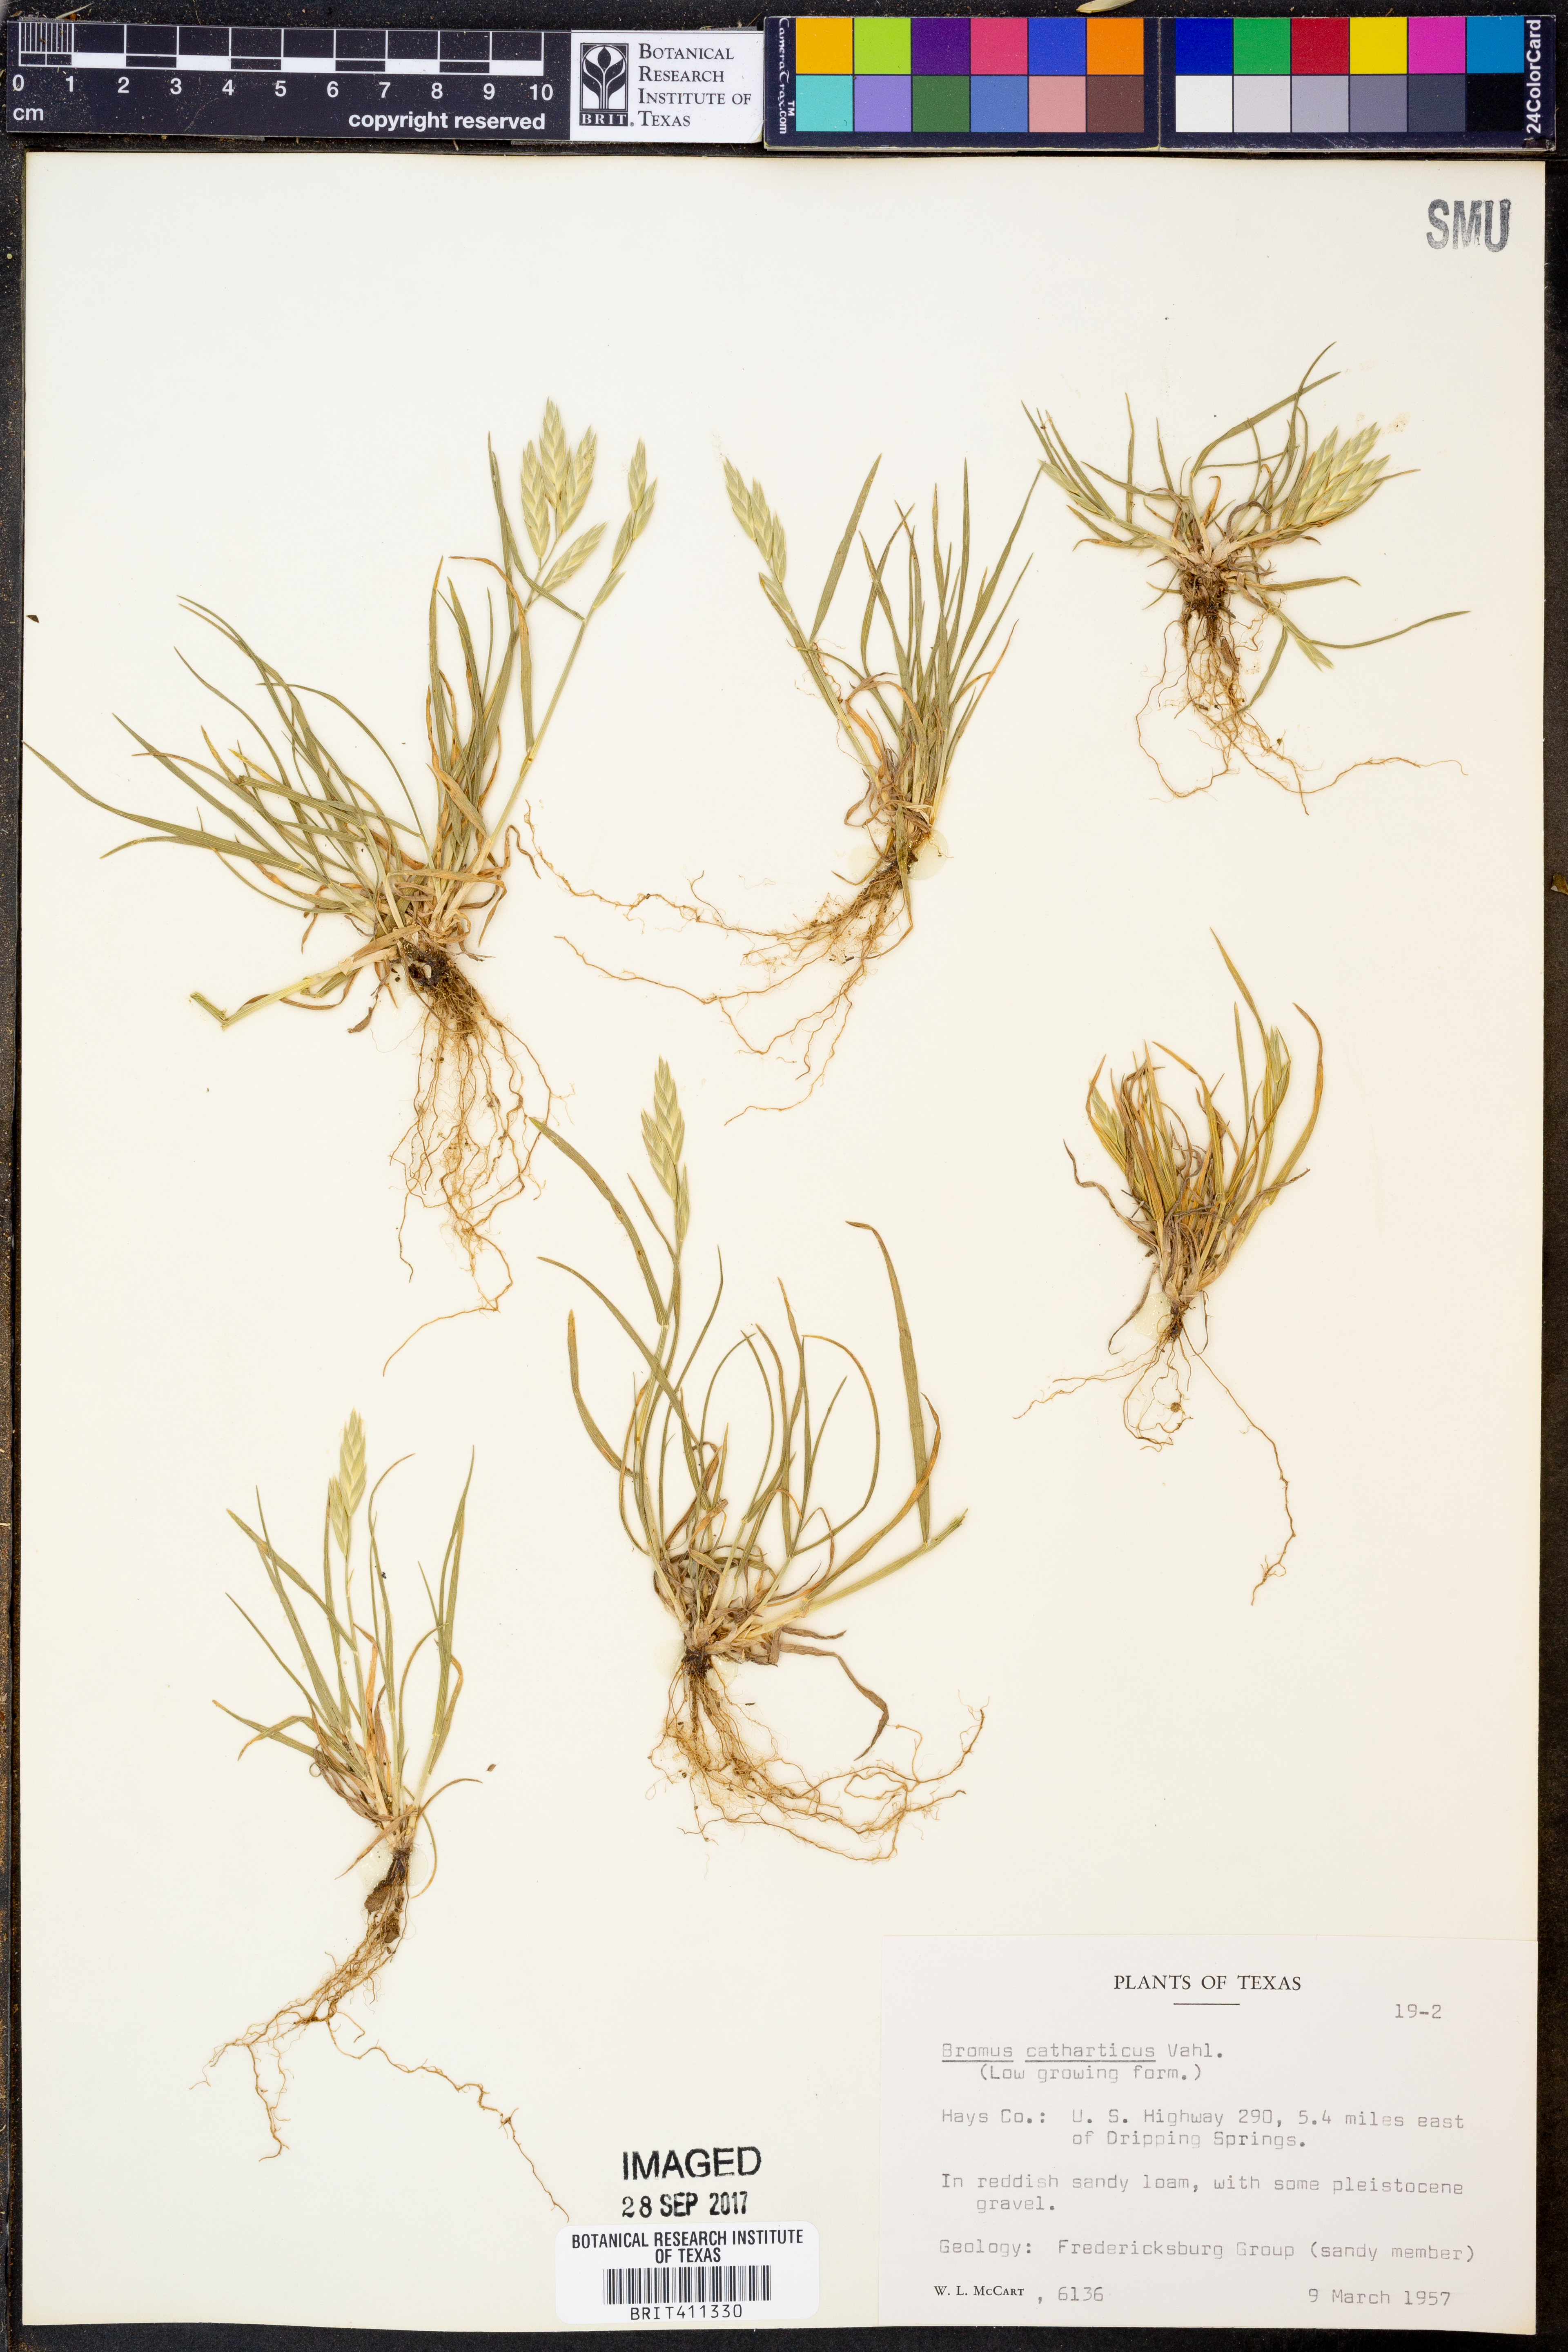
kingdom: Plantae
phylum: Tracheophyta
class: Liliopsida
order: Poales
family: Poaceae
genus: Bromus
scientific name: Bromus catharticus
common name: Rescuegrass
